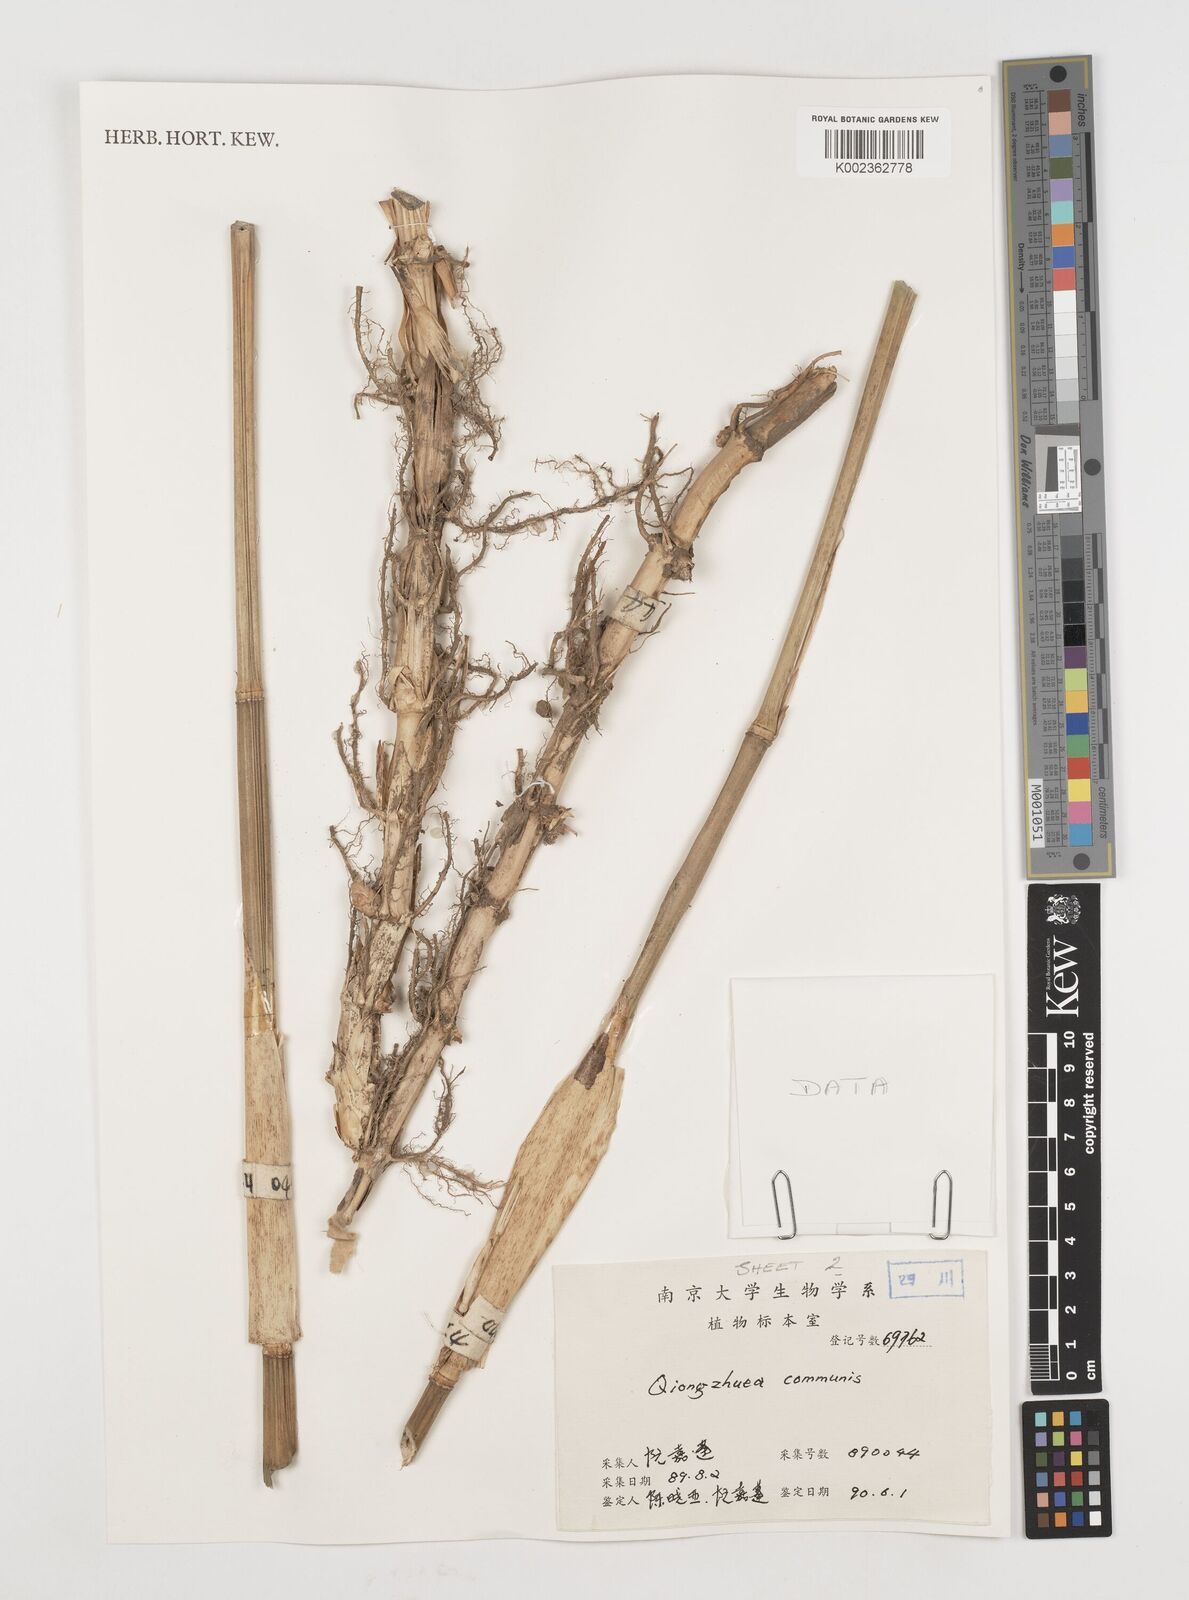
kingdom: Plantae
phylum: Tracheophyta
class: Liliopsida
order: Poales
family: Poaceae
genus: Chimonobambusa
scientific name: Chimonobambusa communis
